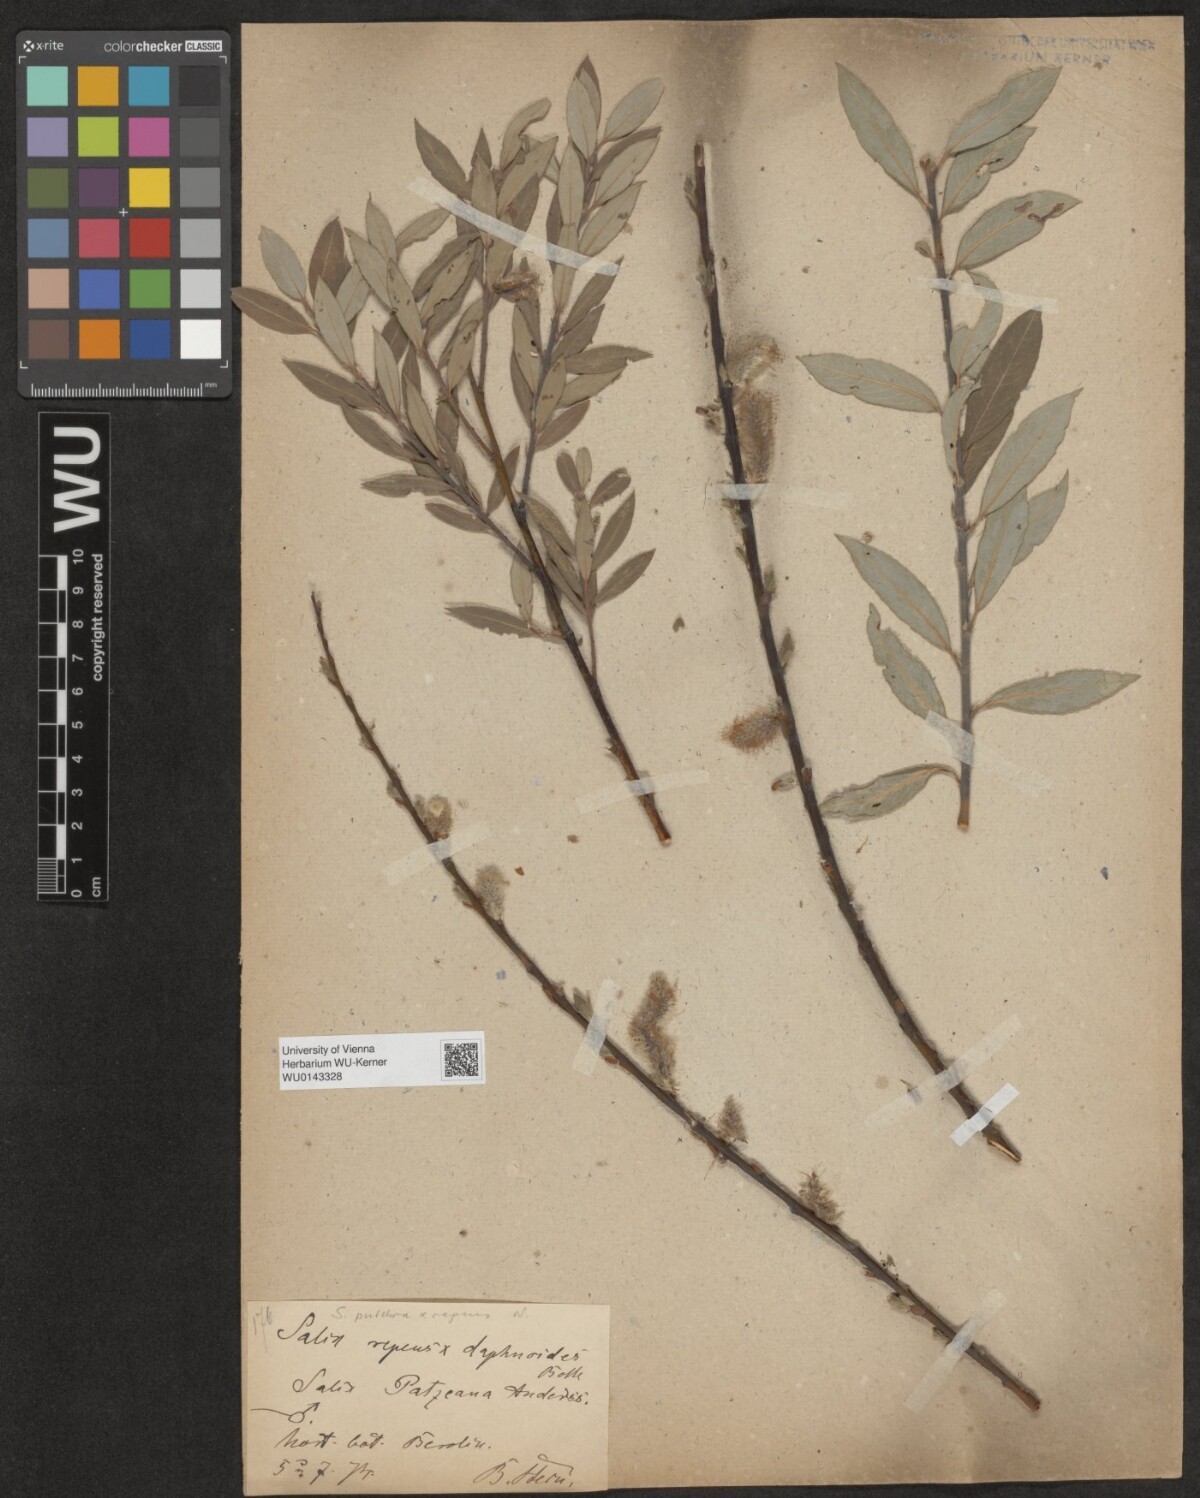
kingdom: Plantae
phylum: Tracheophyta
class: Magnoliopsida
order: Malpighiales
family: Salicaceae
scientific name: Salicaceae
